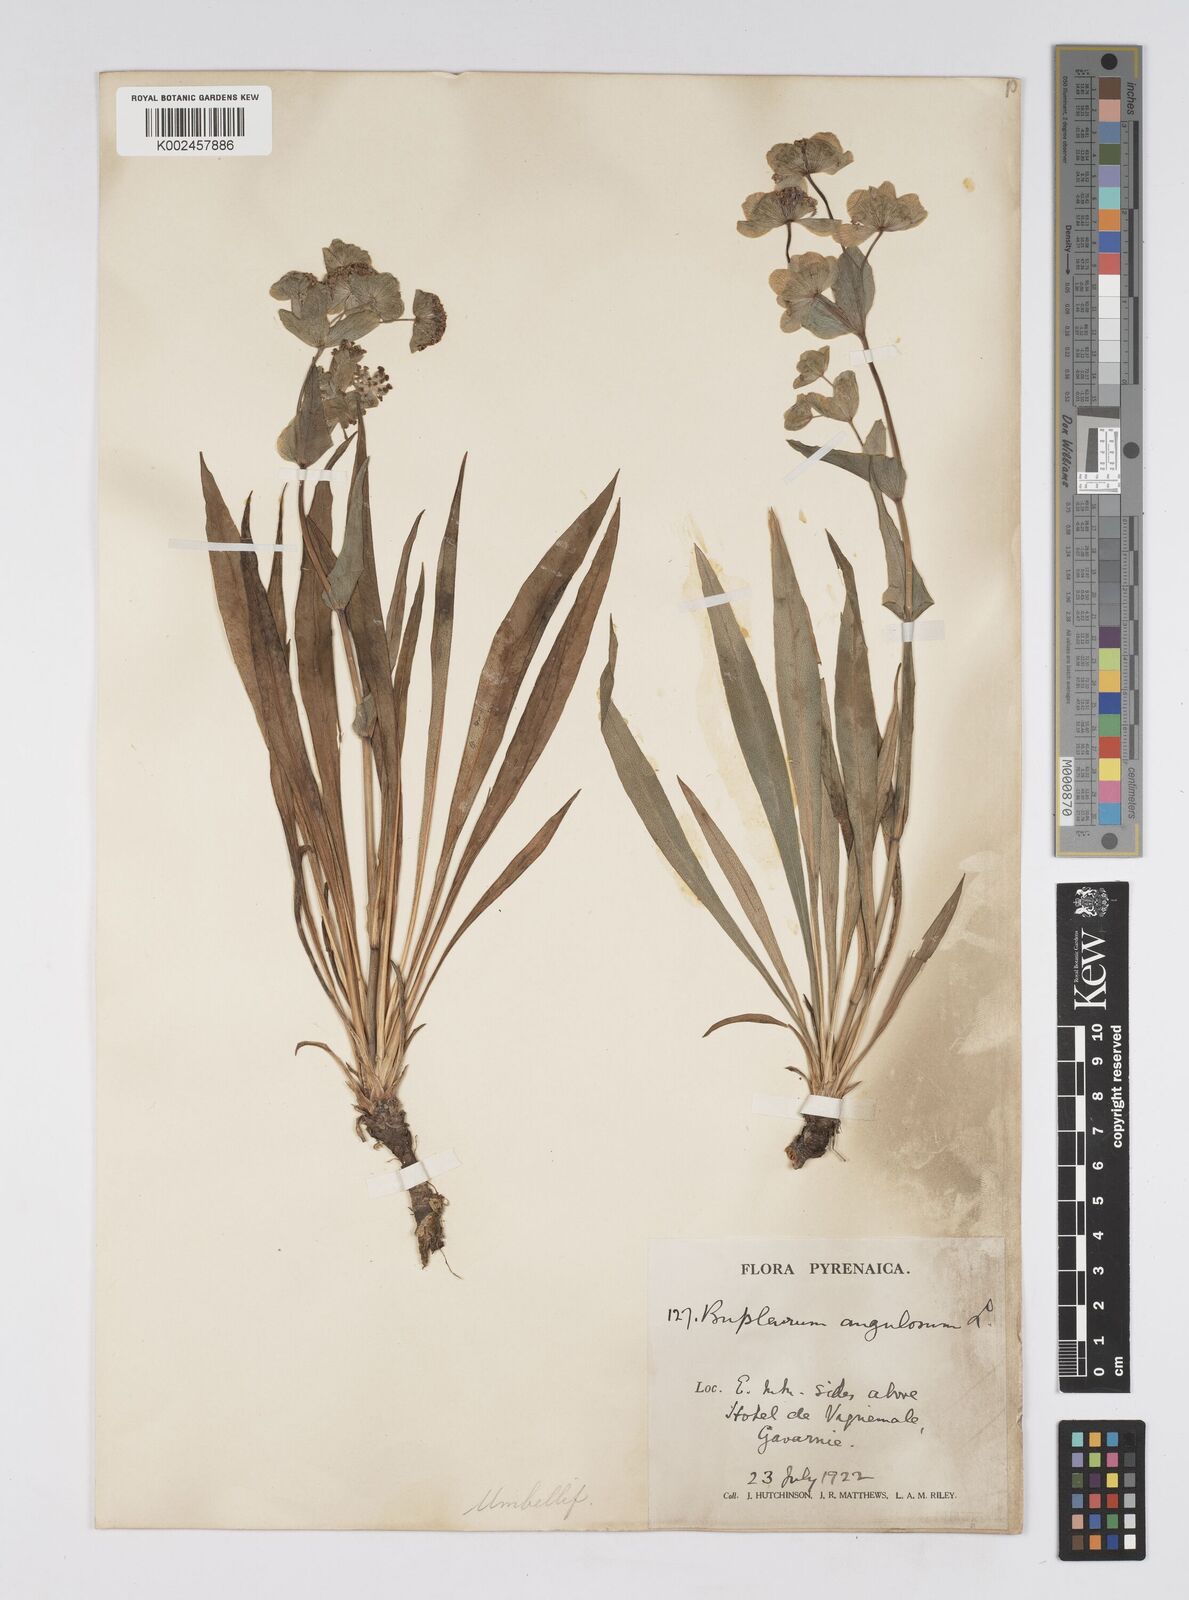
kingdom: Plantae
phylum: Tracheophyta
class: Magnoliopsida
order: Apiales
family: Apiaceae
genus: Bupleurum
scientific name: Bupleurum angulosum
